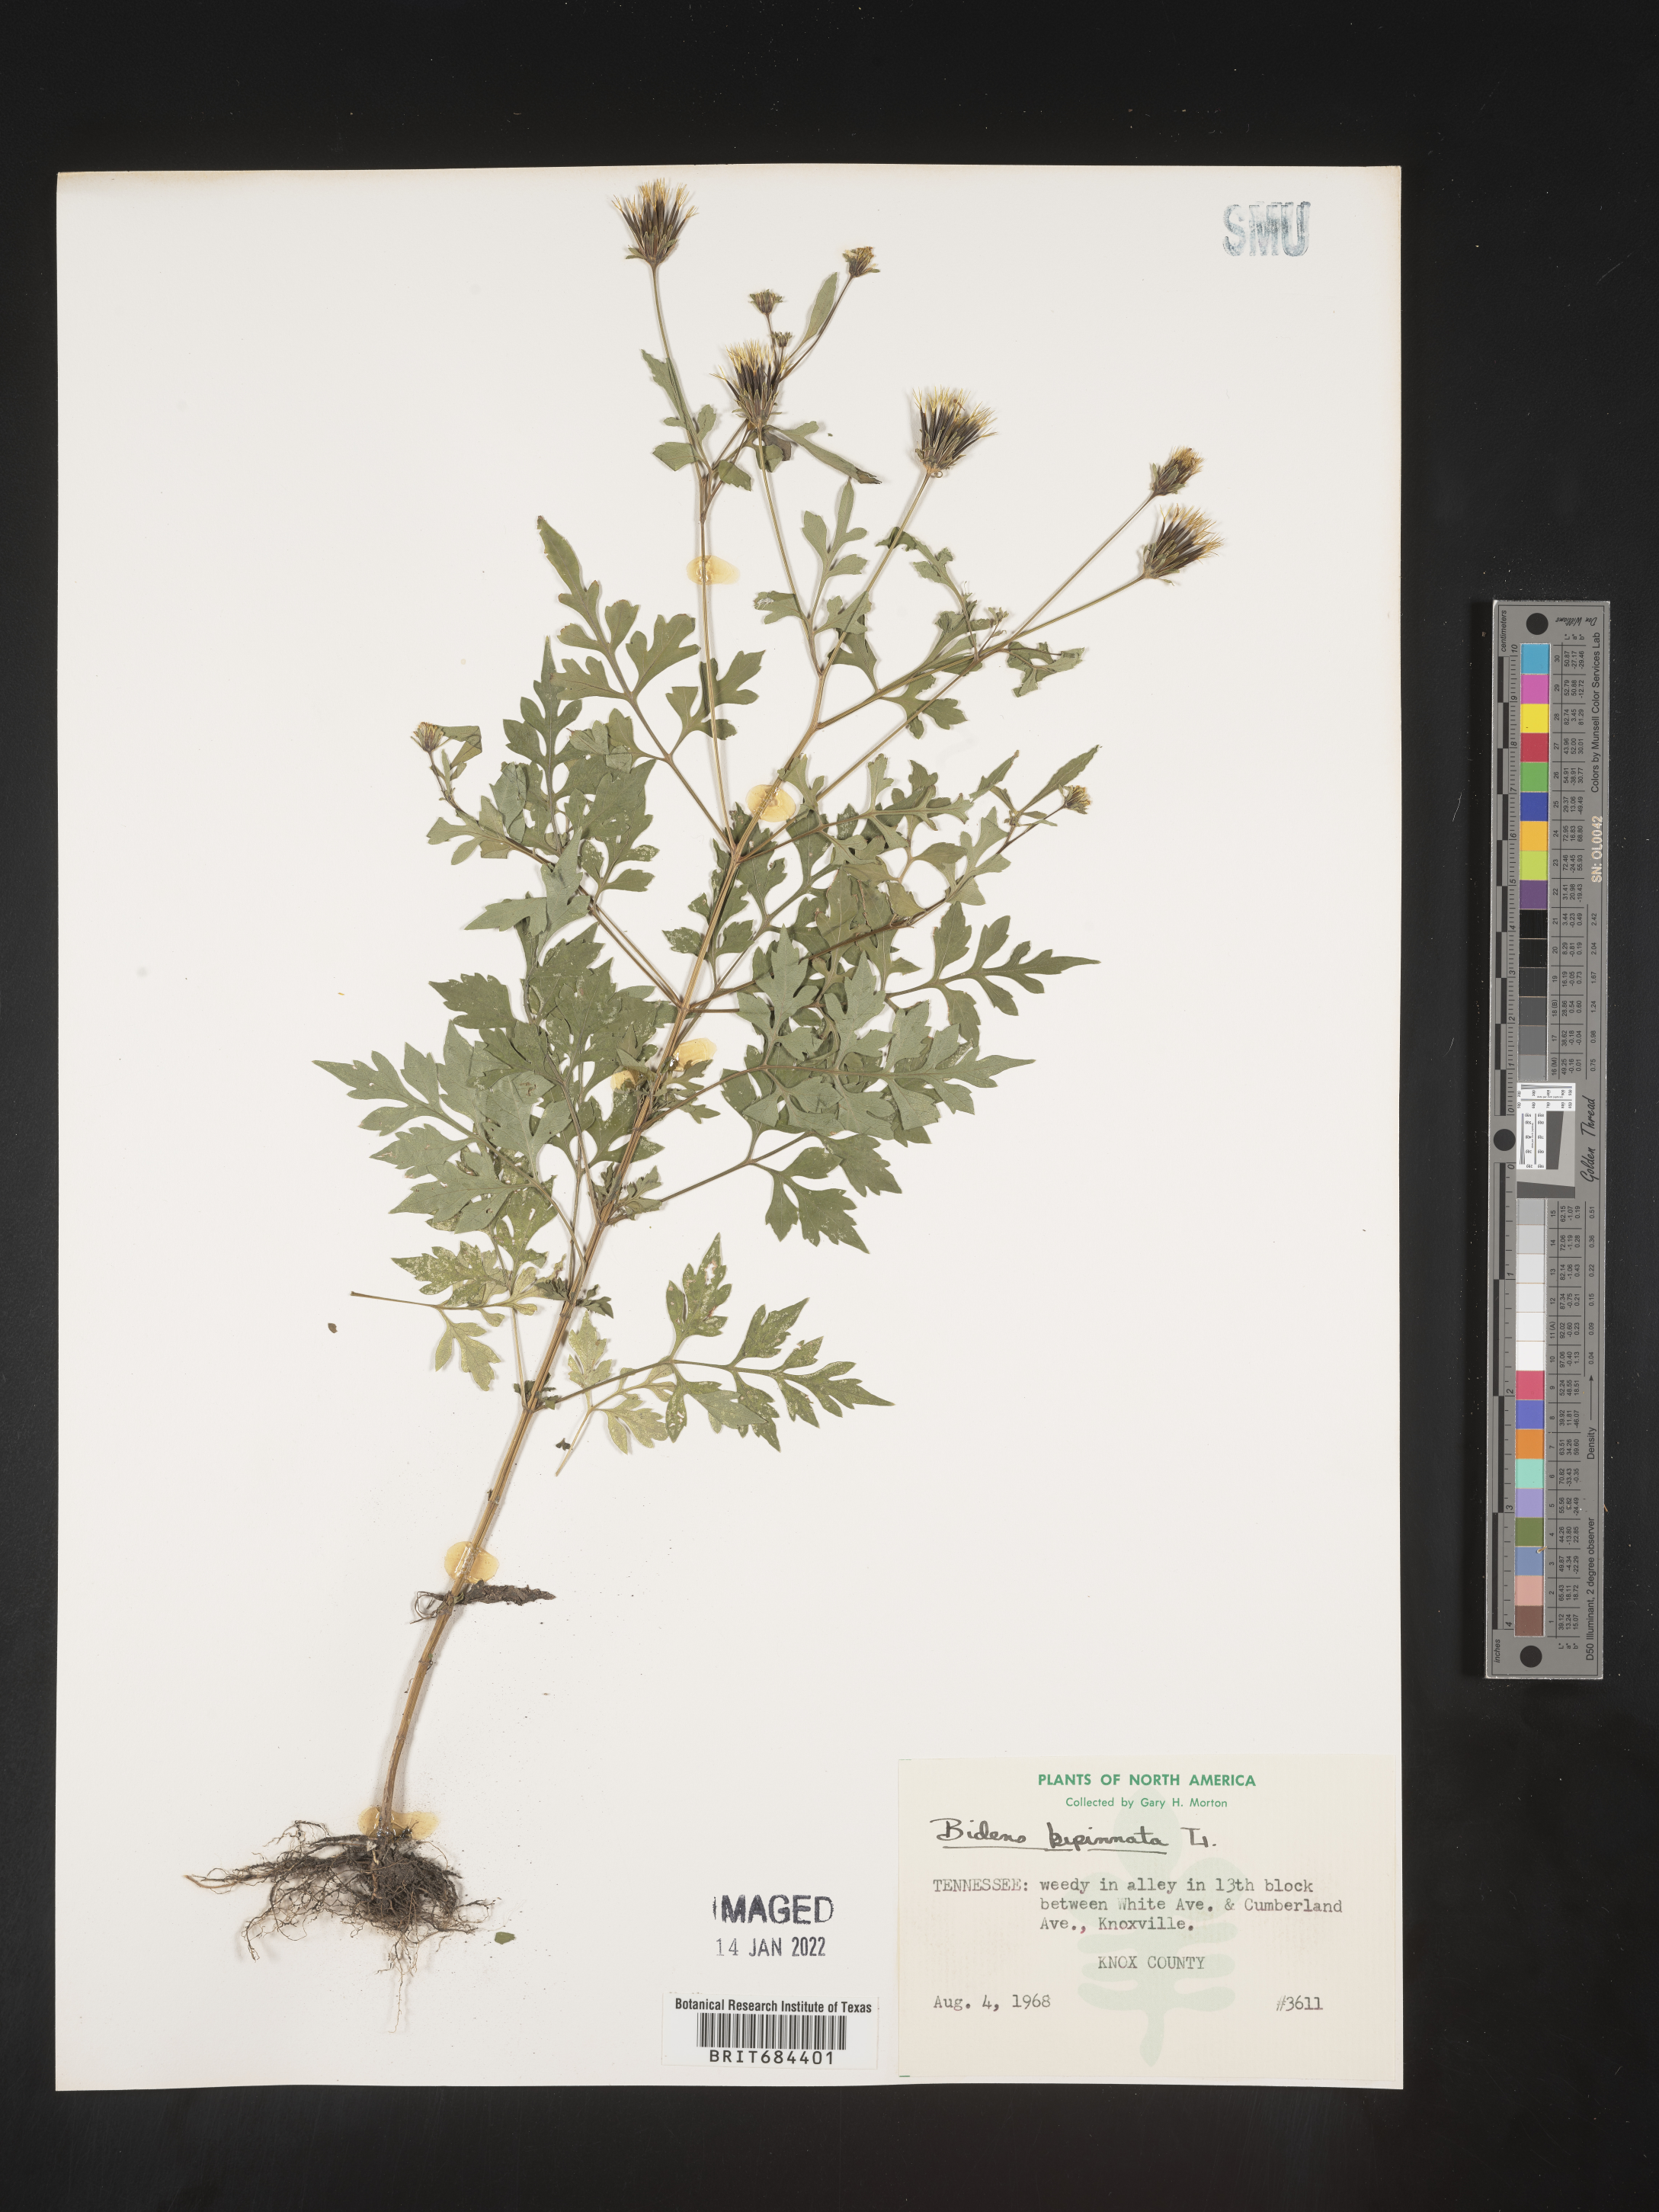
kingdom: Plantae
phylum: Tracheophyta
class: Magnoliopsida
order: Asterales
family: Asteraceae
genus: Bidens
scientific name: Bidens bipinnata
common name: Spanish-needles
